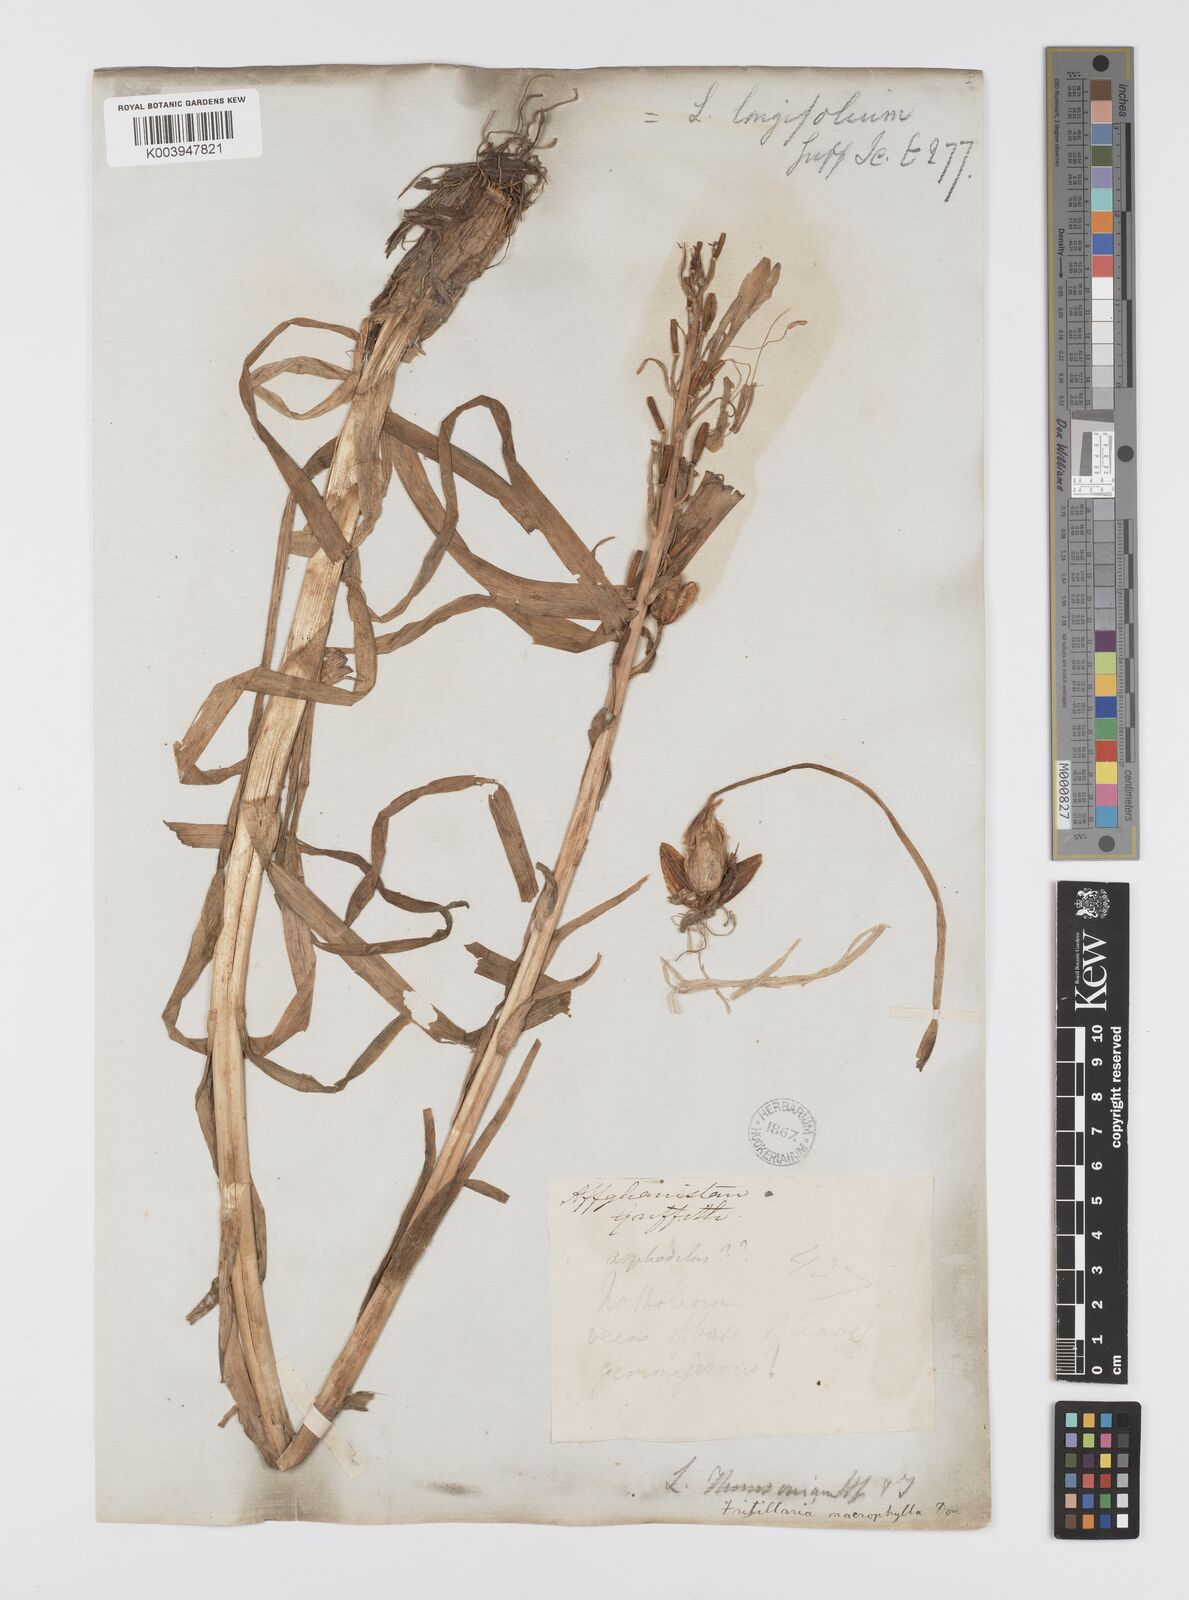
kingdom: Plantae
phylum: Tracheophyta
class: Liliopsida
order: Liliales
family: Liliaceae
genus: Notholirion
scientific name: Notholirion thomsonianum
